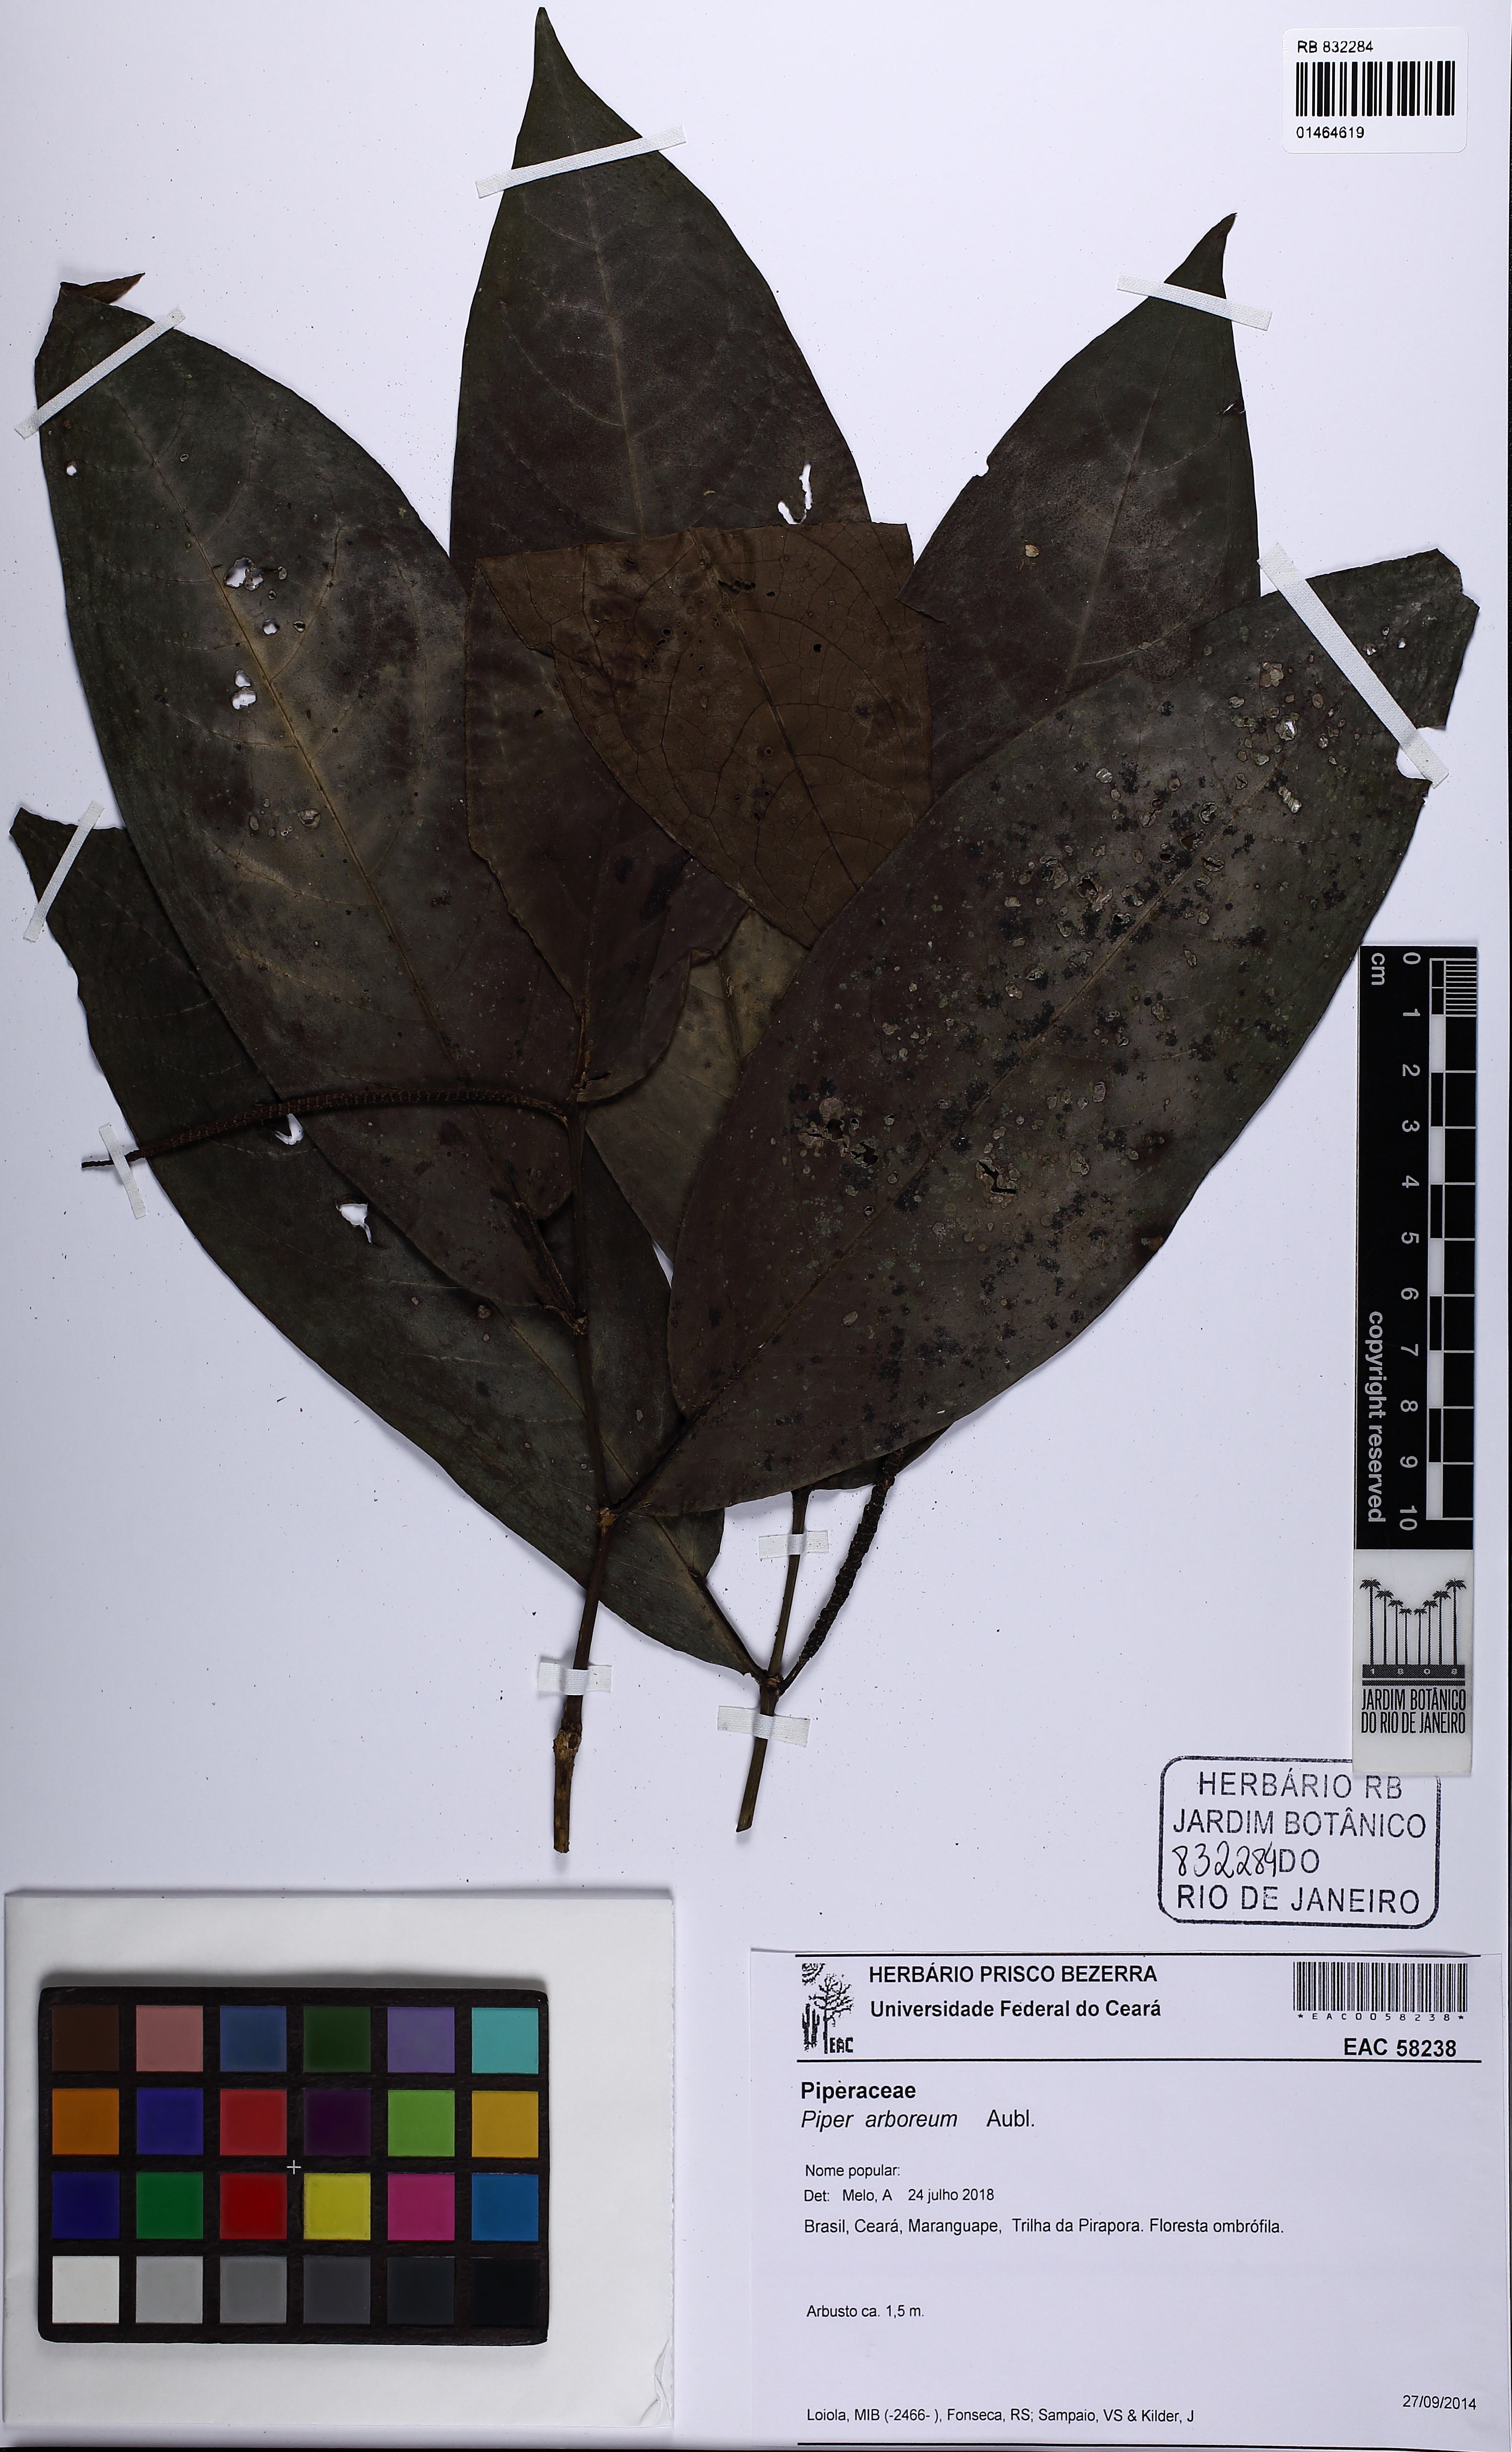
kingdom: Plantae
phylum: Tracheophyta
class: Magnoliopsida
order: Piperales
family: Piperaceae
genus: Piper
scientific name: Piper arboreum
